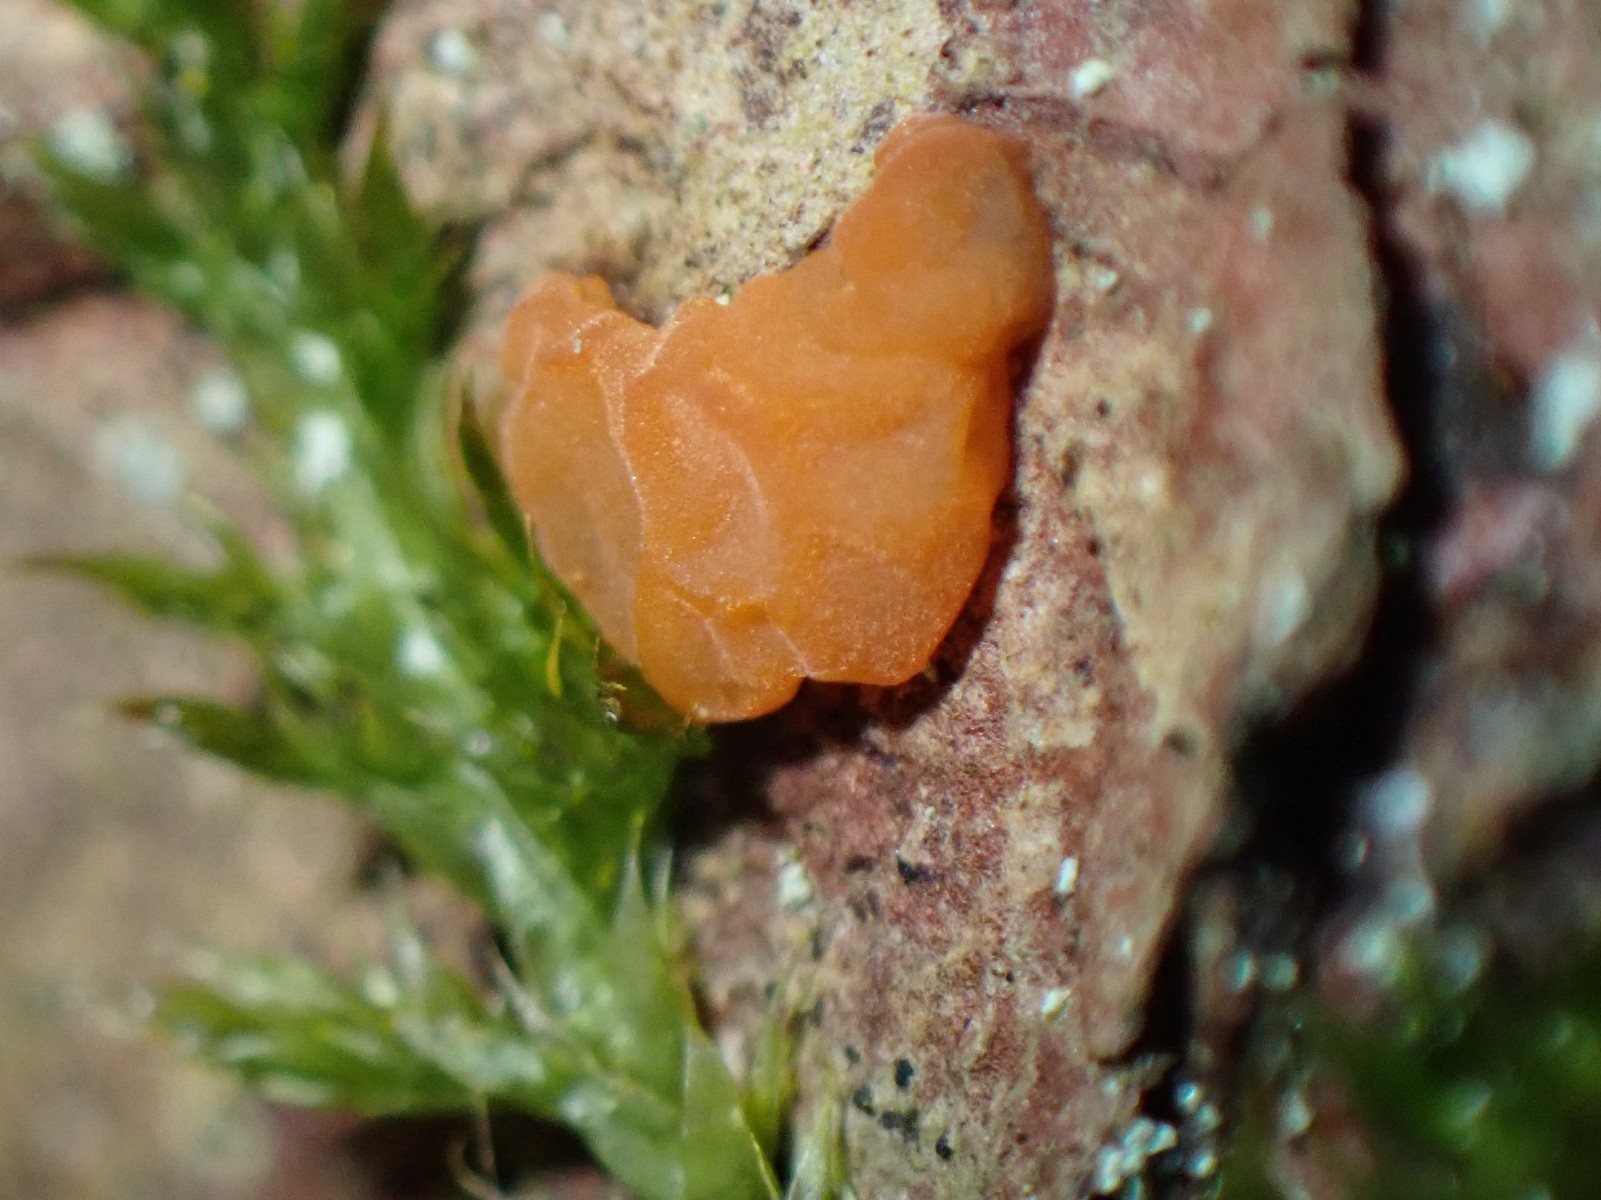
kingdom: Fungi
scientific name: Fungi
